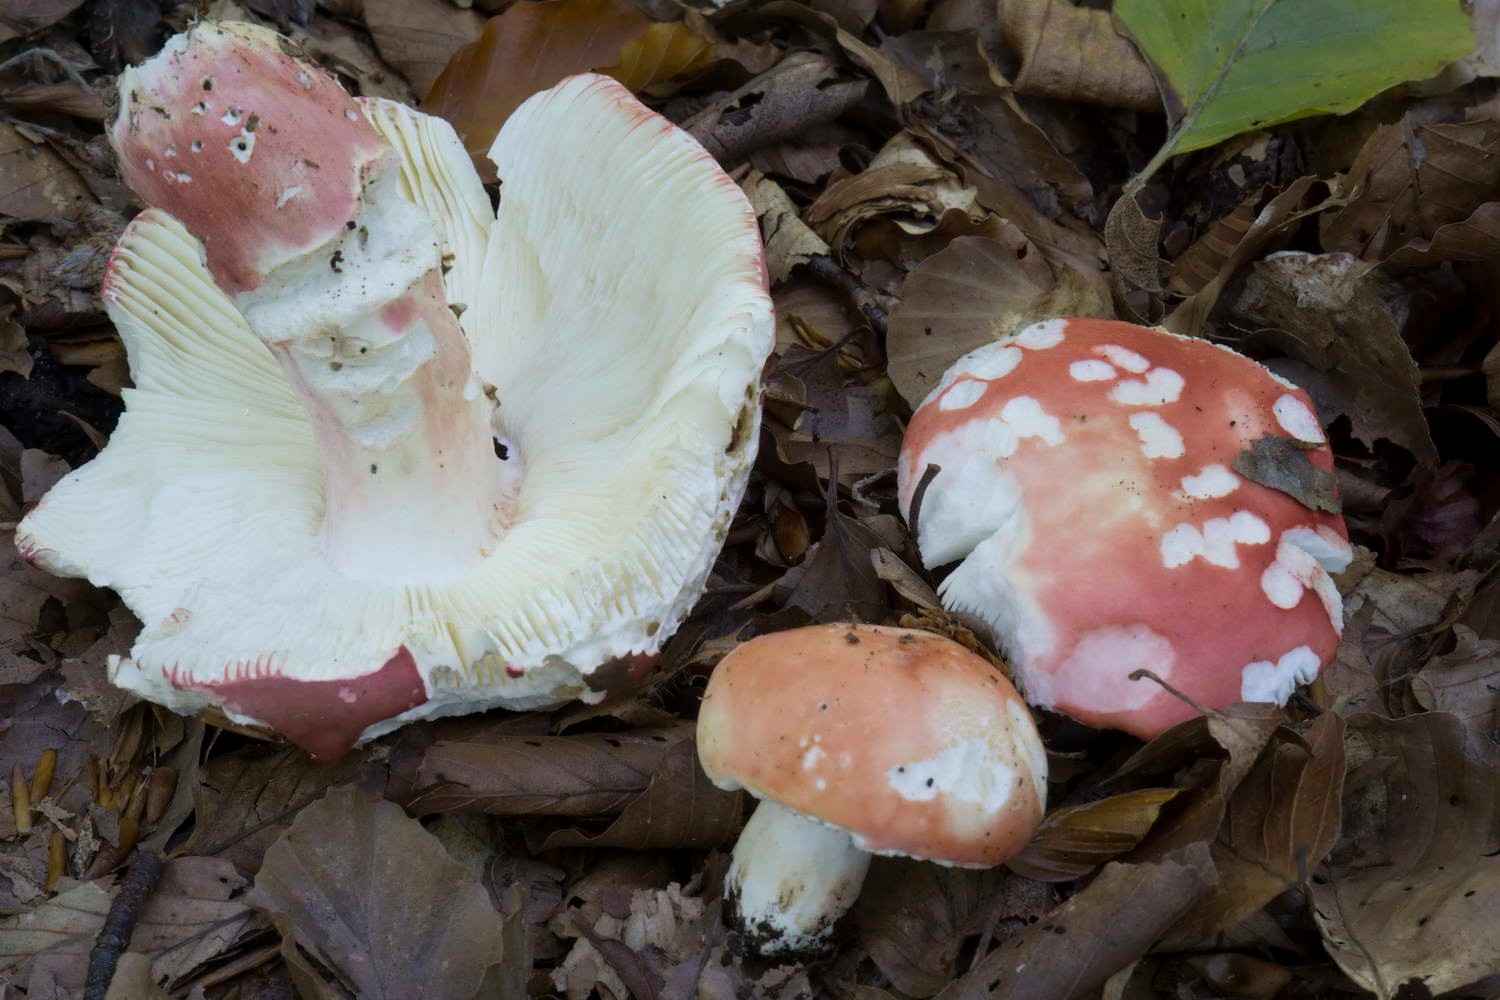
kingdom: Fungi
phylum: Basidiomycota
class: Agaricomycetes
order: Russulales
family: Russulaceae
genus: Russula
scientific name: Russula rosea
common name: fastkødet skørhat
